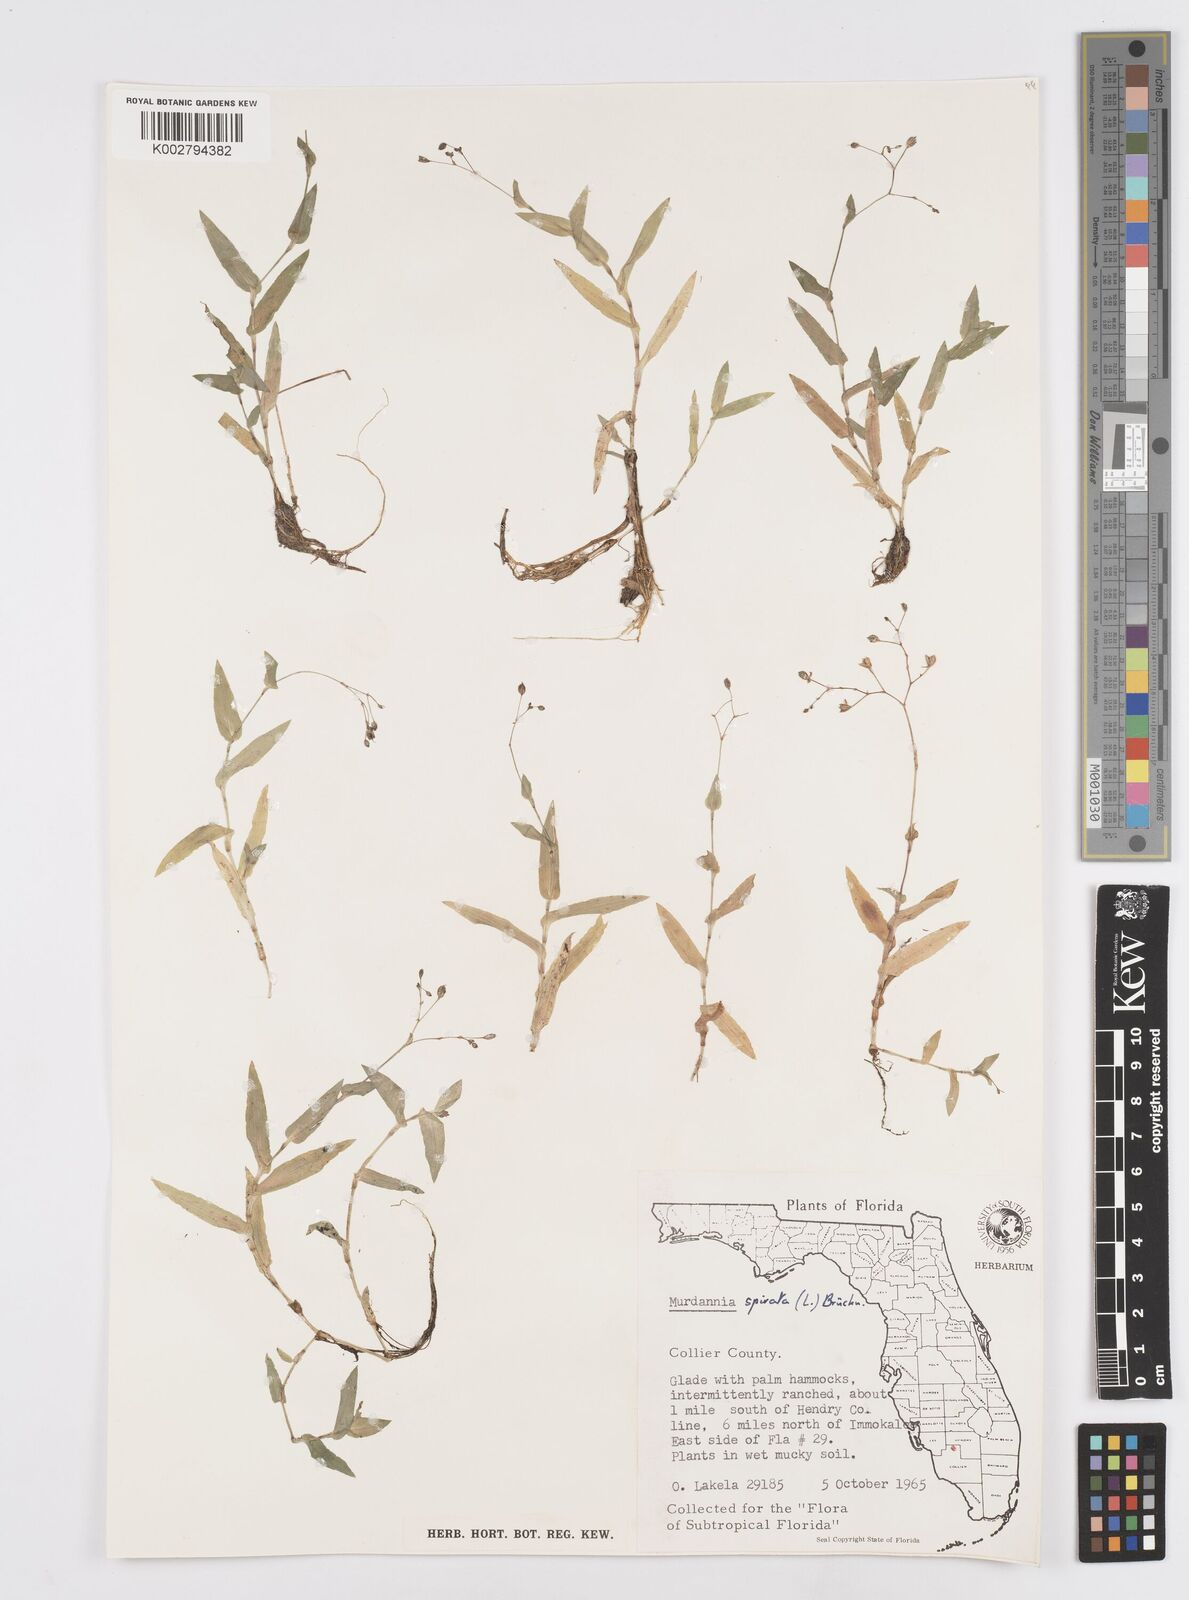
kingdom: Plantae
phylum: Tracheophyta
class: Liliopsida
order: Commelinales
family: Commelinaceae
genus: Murdannia
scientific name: Murdannia spirata
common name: Asiatic dewflower
